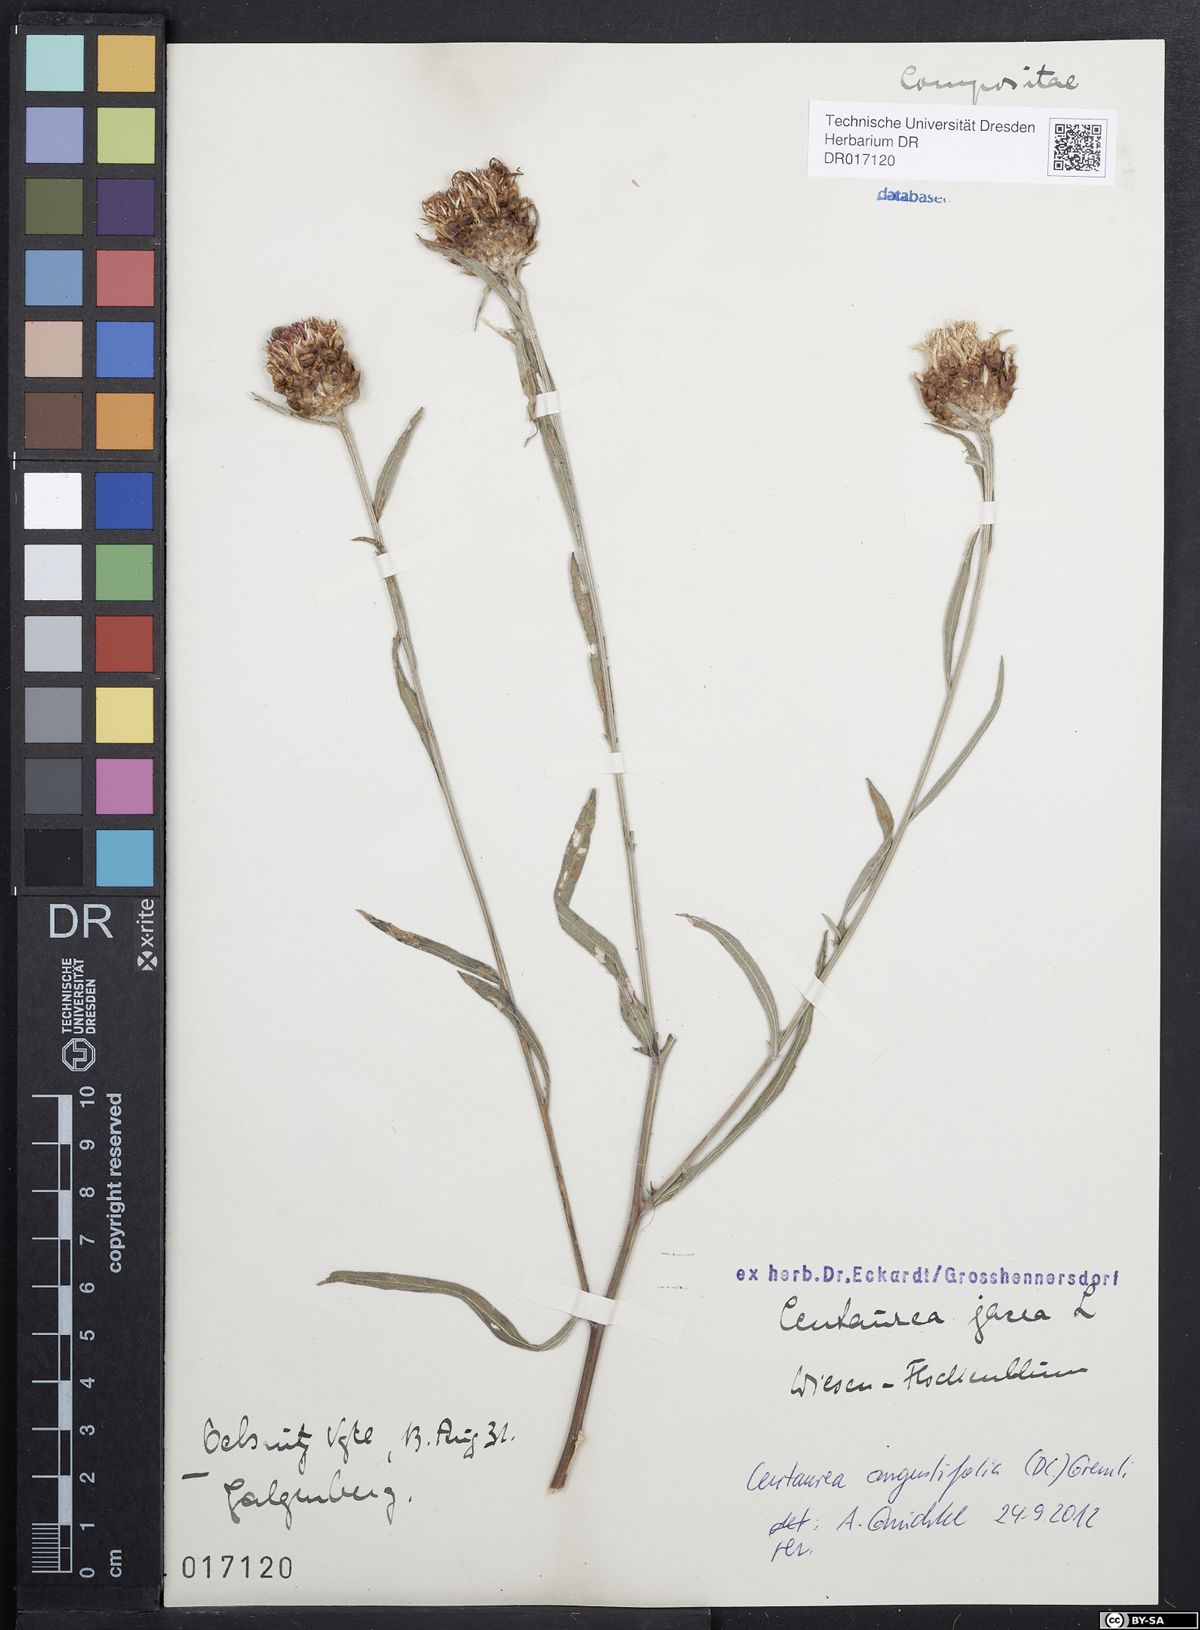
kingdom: Plantae
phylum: Tracheophyta
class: Magnoliopsida
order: Asterales
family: Asteraceae
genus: Centaurea
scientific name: Centaurea jacea
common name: Brown knapweed
